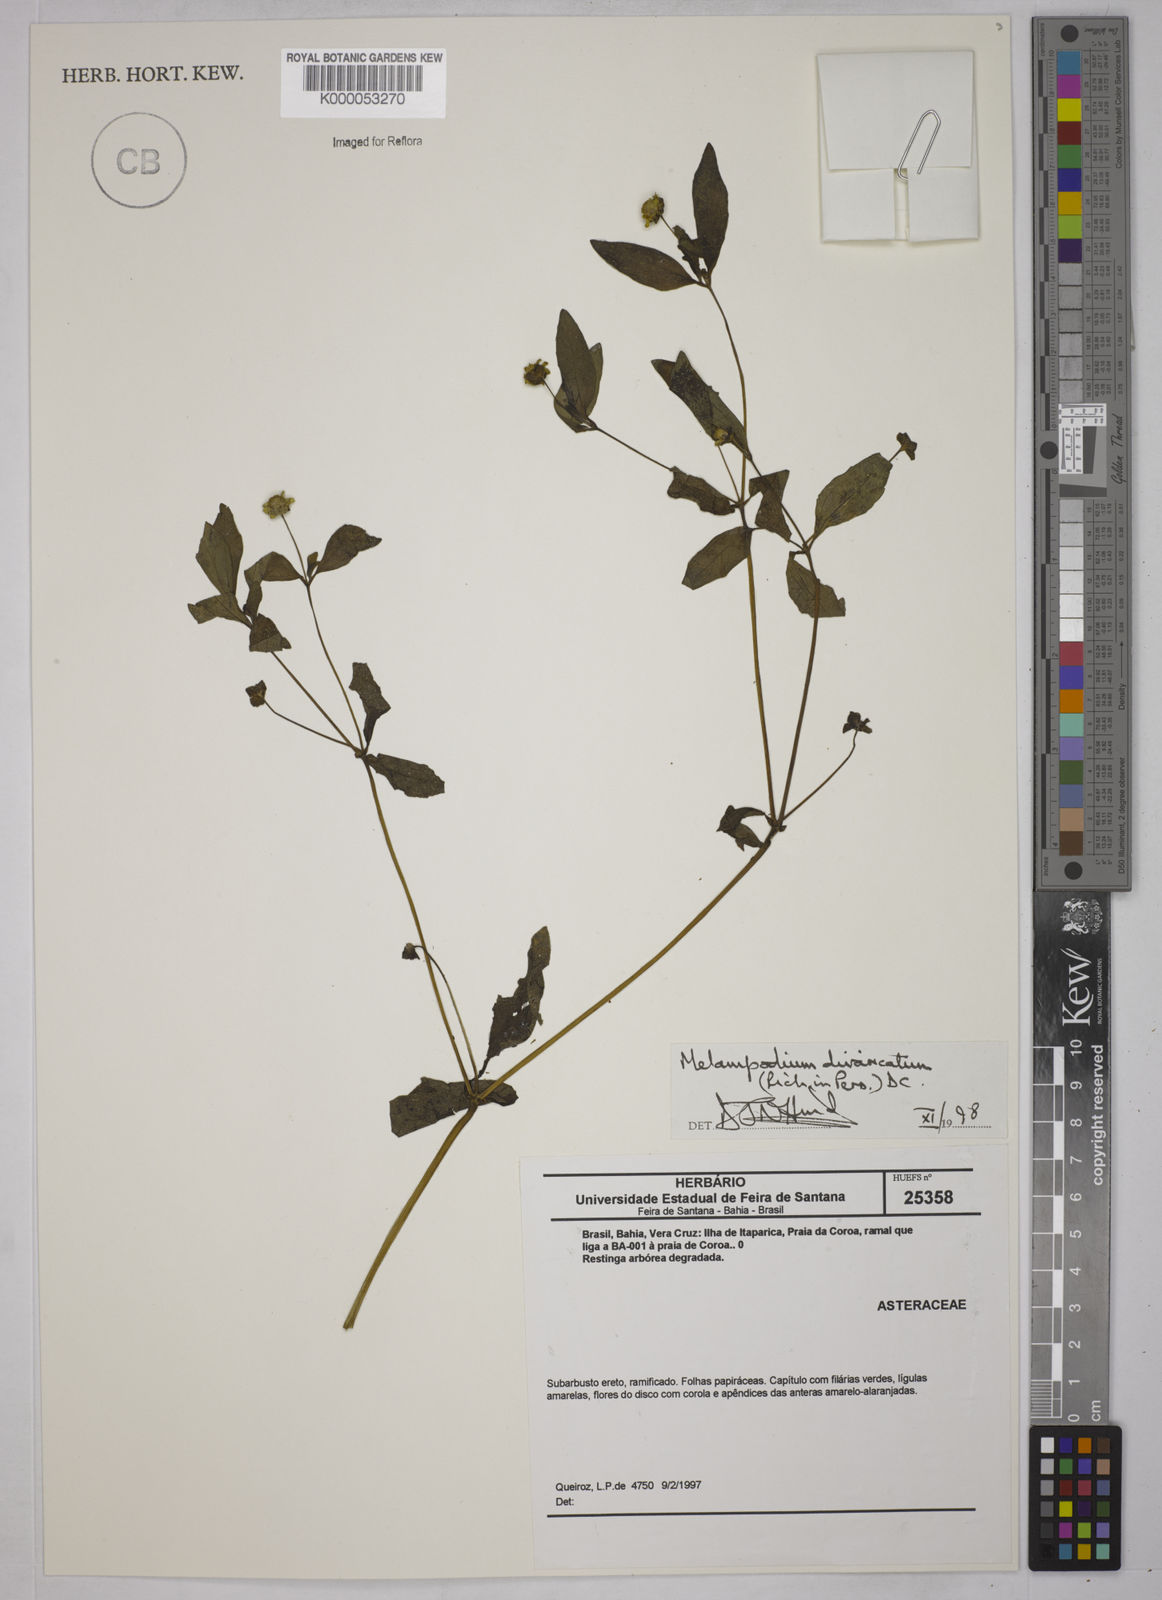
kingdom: Plantae
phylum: Tracheophyta
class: Magnoliopsida
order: Asterales
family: Asteraceae
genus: Melampodium
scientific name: Melampodium divaricatum
